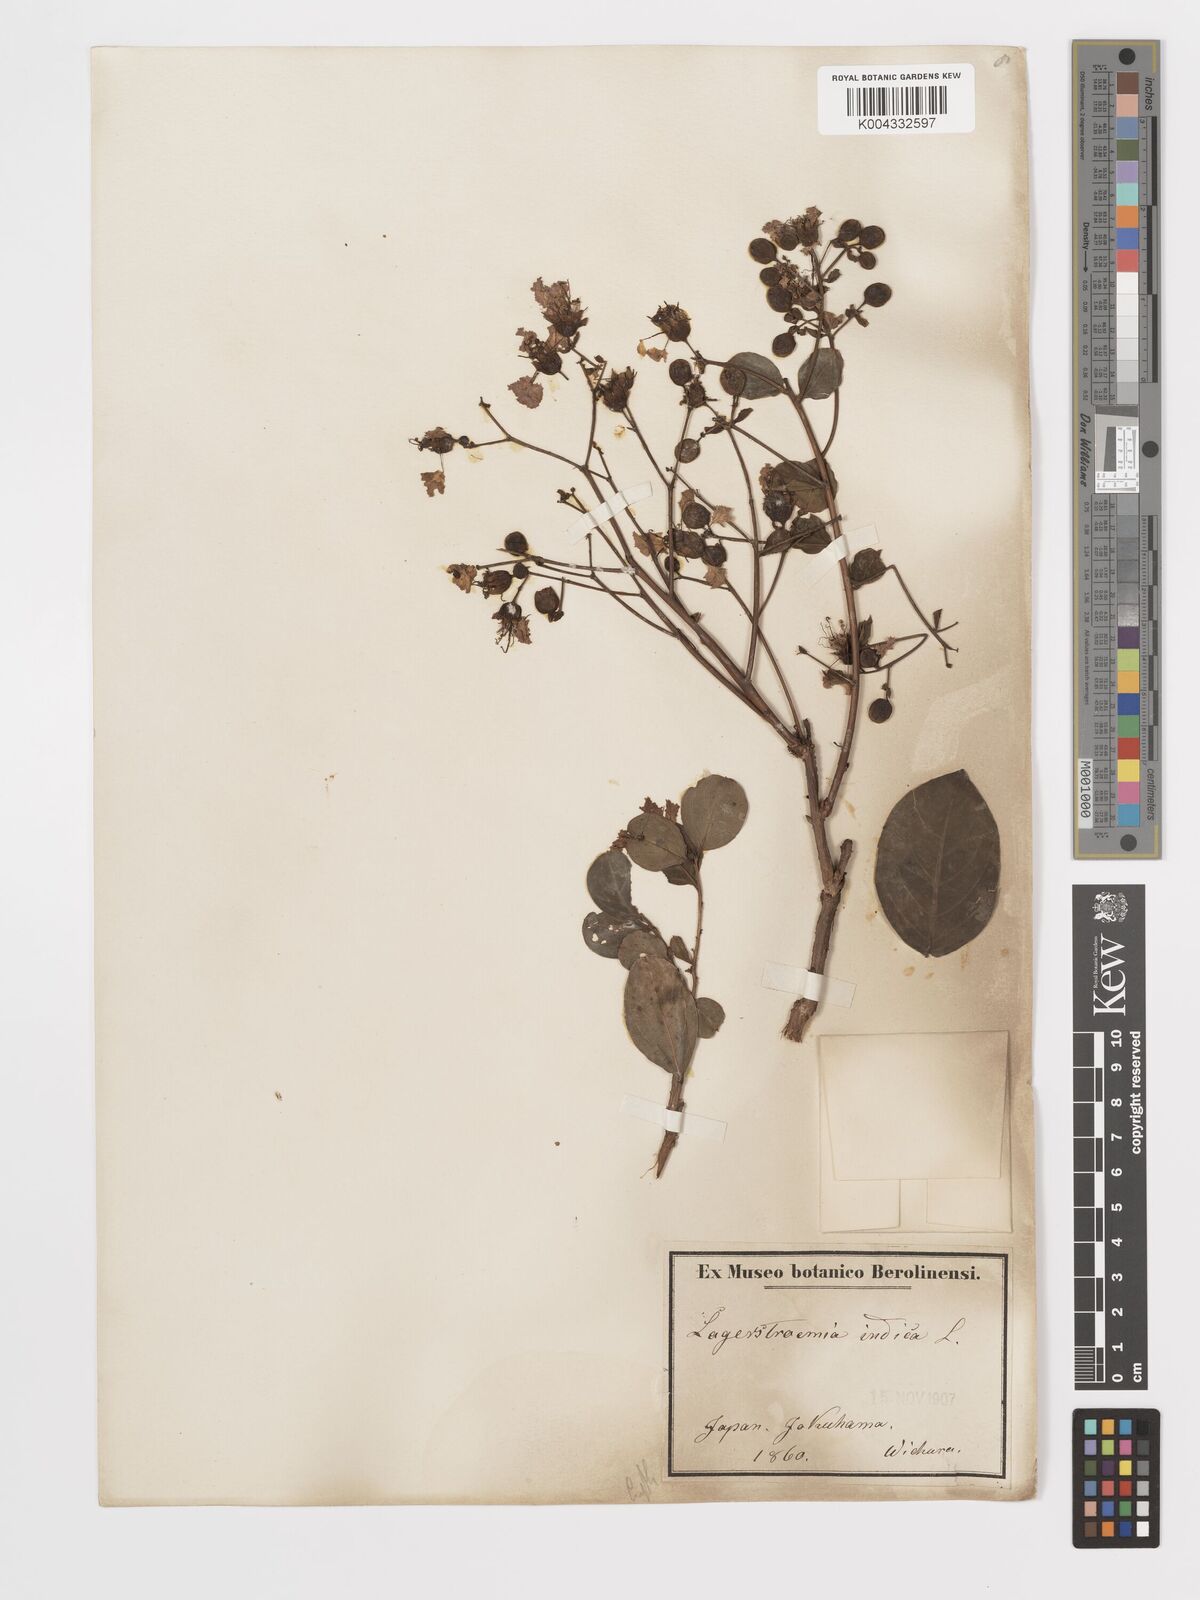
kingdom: Plantae
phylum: Tracheophyta
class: Magnoliopsida
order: Myrtales
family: Lythraceae
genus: Lagerstroemia
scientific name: Lagerstroemia indica
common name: Crape-myrtle
